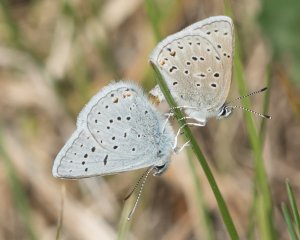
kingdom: Animalia
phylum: Arthropoda
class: Insecta
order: Lepidoptera
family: Lycaenidae
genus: Plebejus
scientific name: Plebejus saepiolus
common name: Greenish Blue
